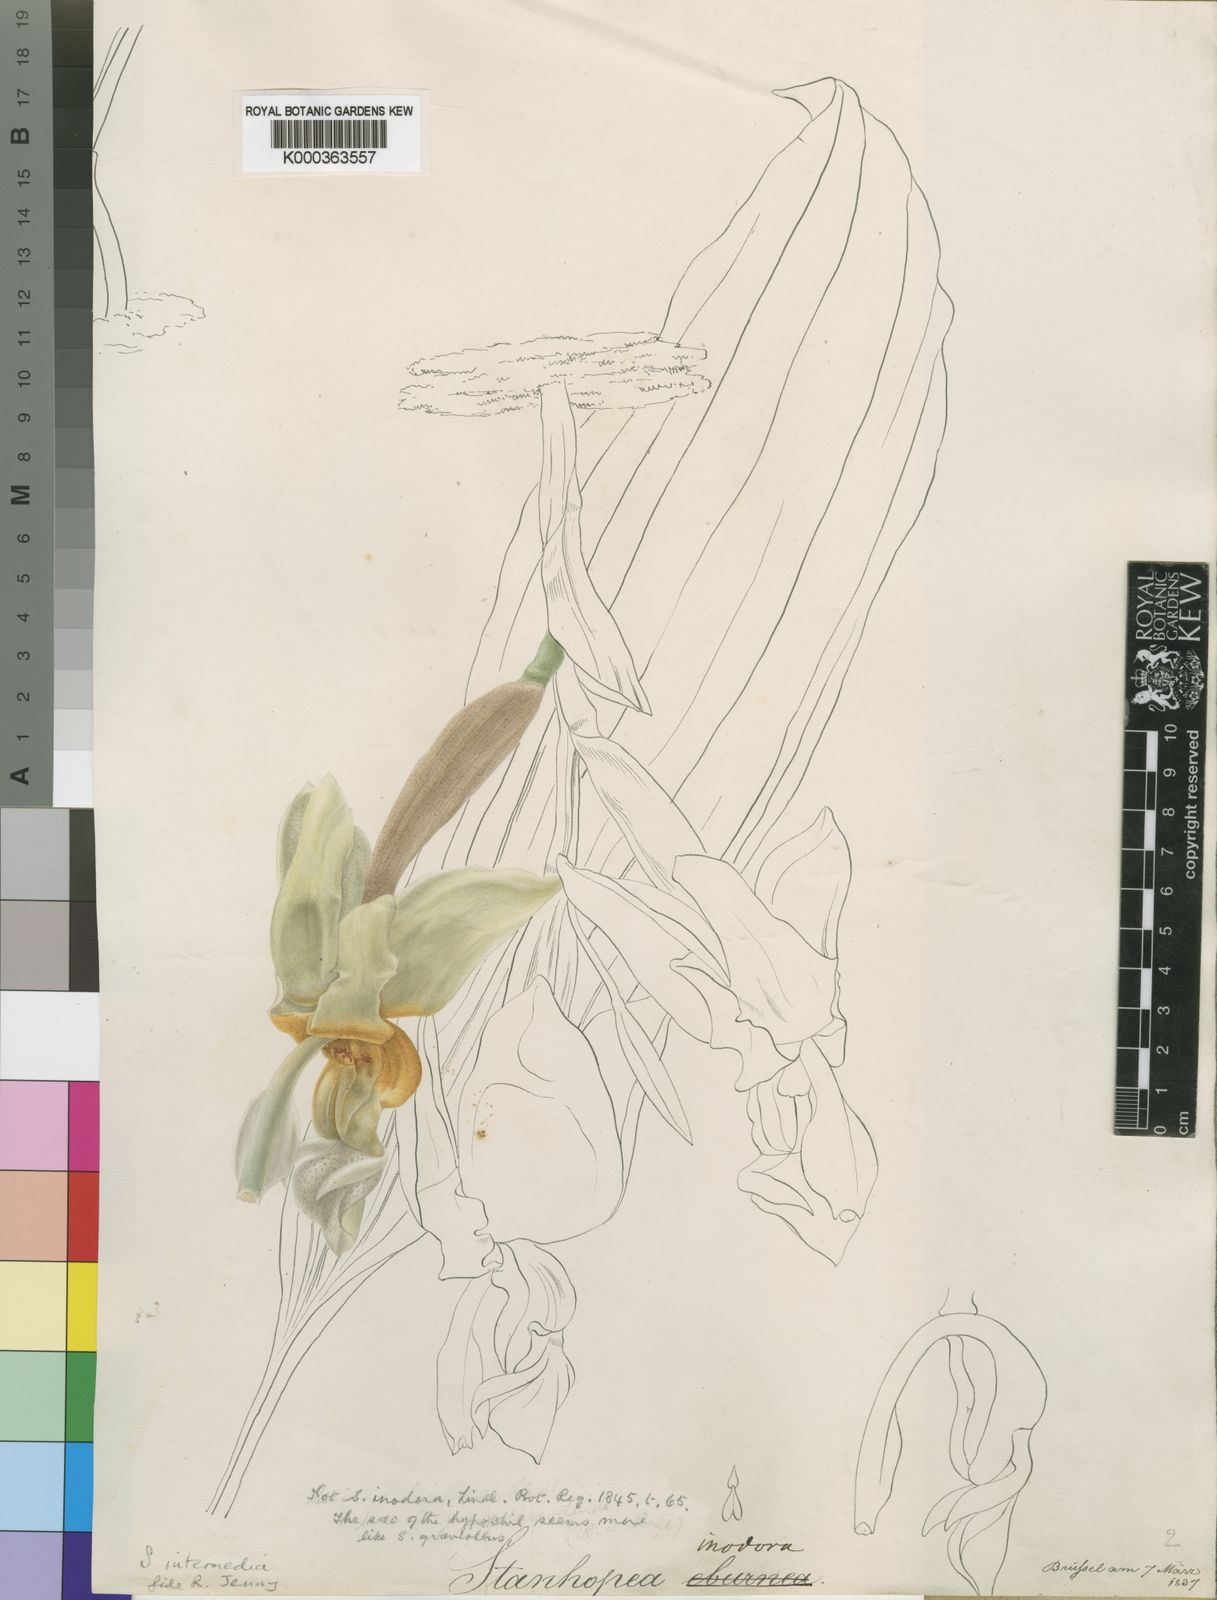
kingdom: Plantae
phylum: Tracheophyta
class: Liliopsida
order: Asparagales
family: Orchidaceae
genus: Stanhopea
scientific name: Stanhopea intermedia
